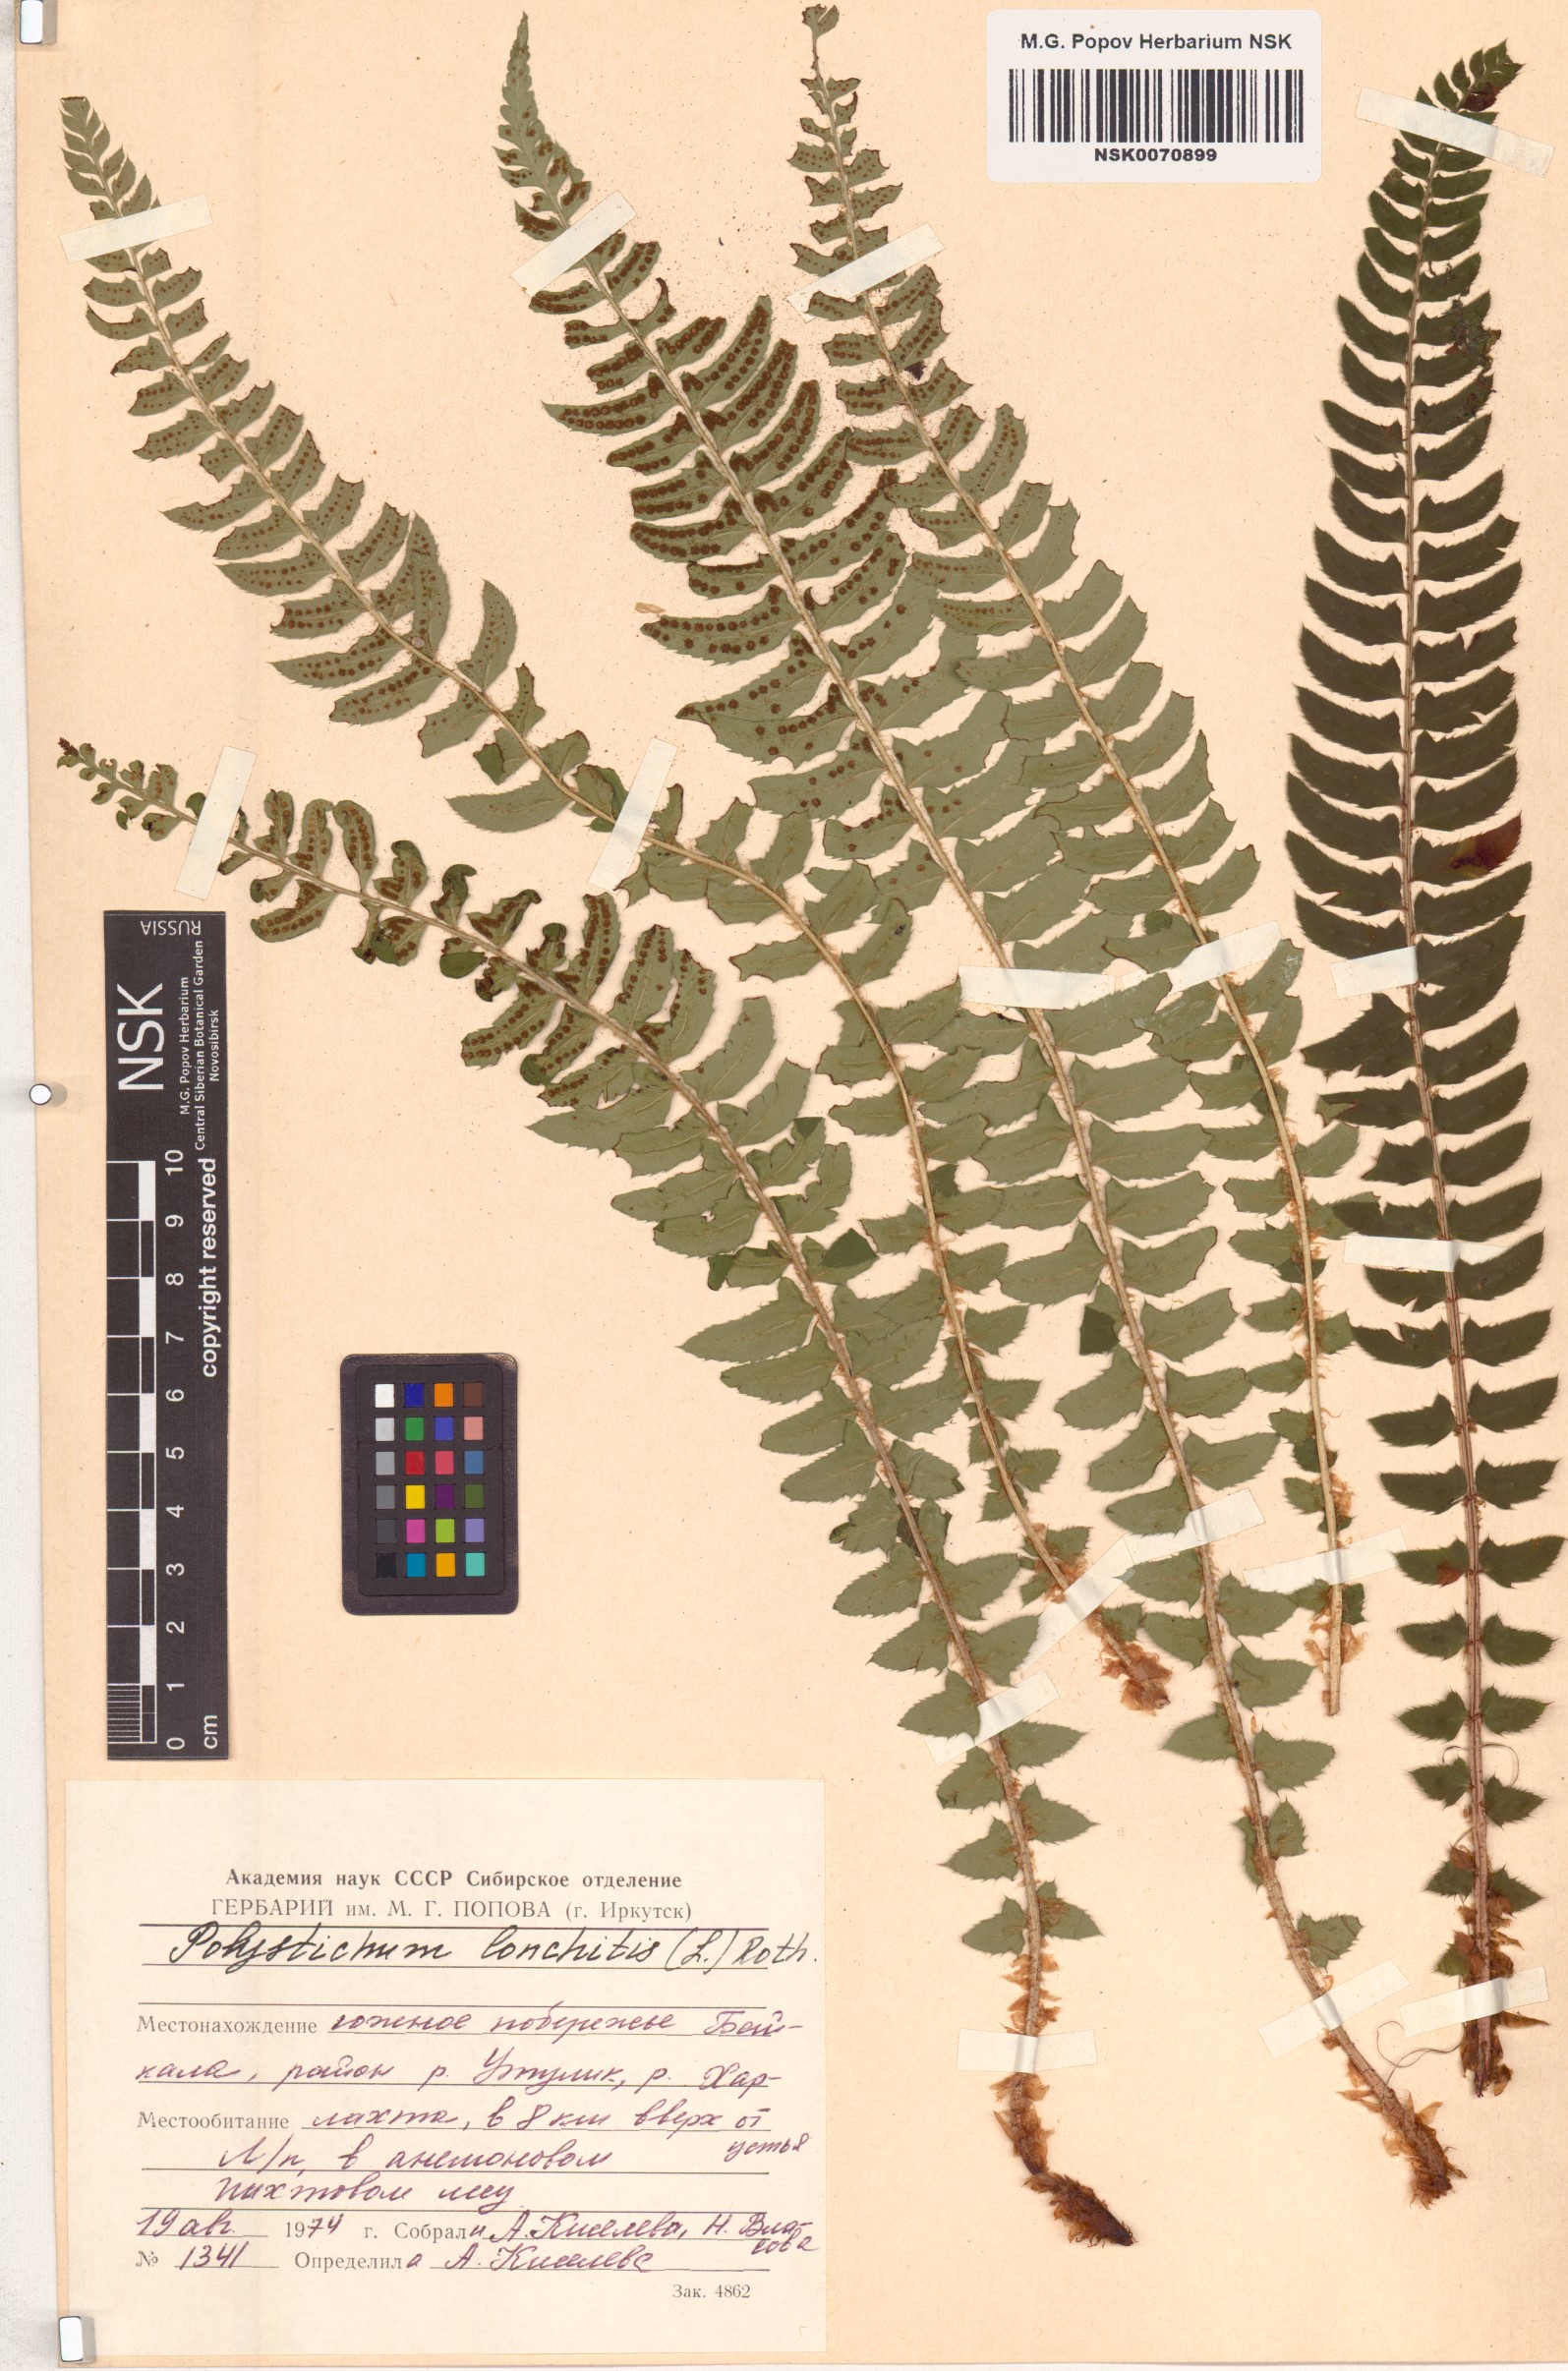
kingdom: Plantae
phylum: Tracheophyta
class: Polypodiopsida
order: Polypodiales
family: Dryopteridaceae
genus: Polystichum
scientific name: Polystichum lonchitis
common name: Holly fern
